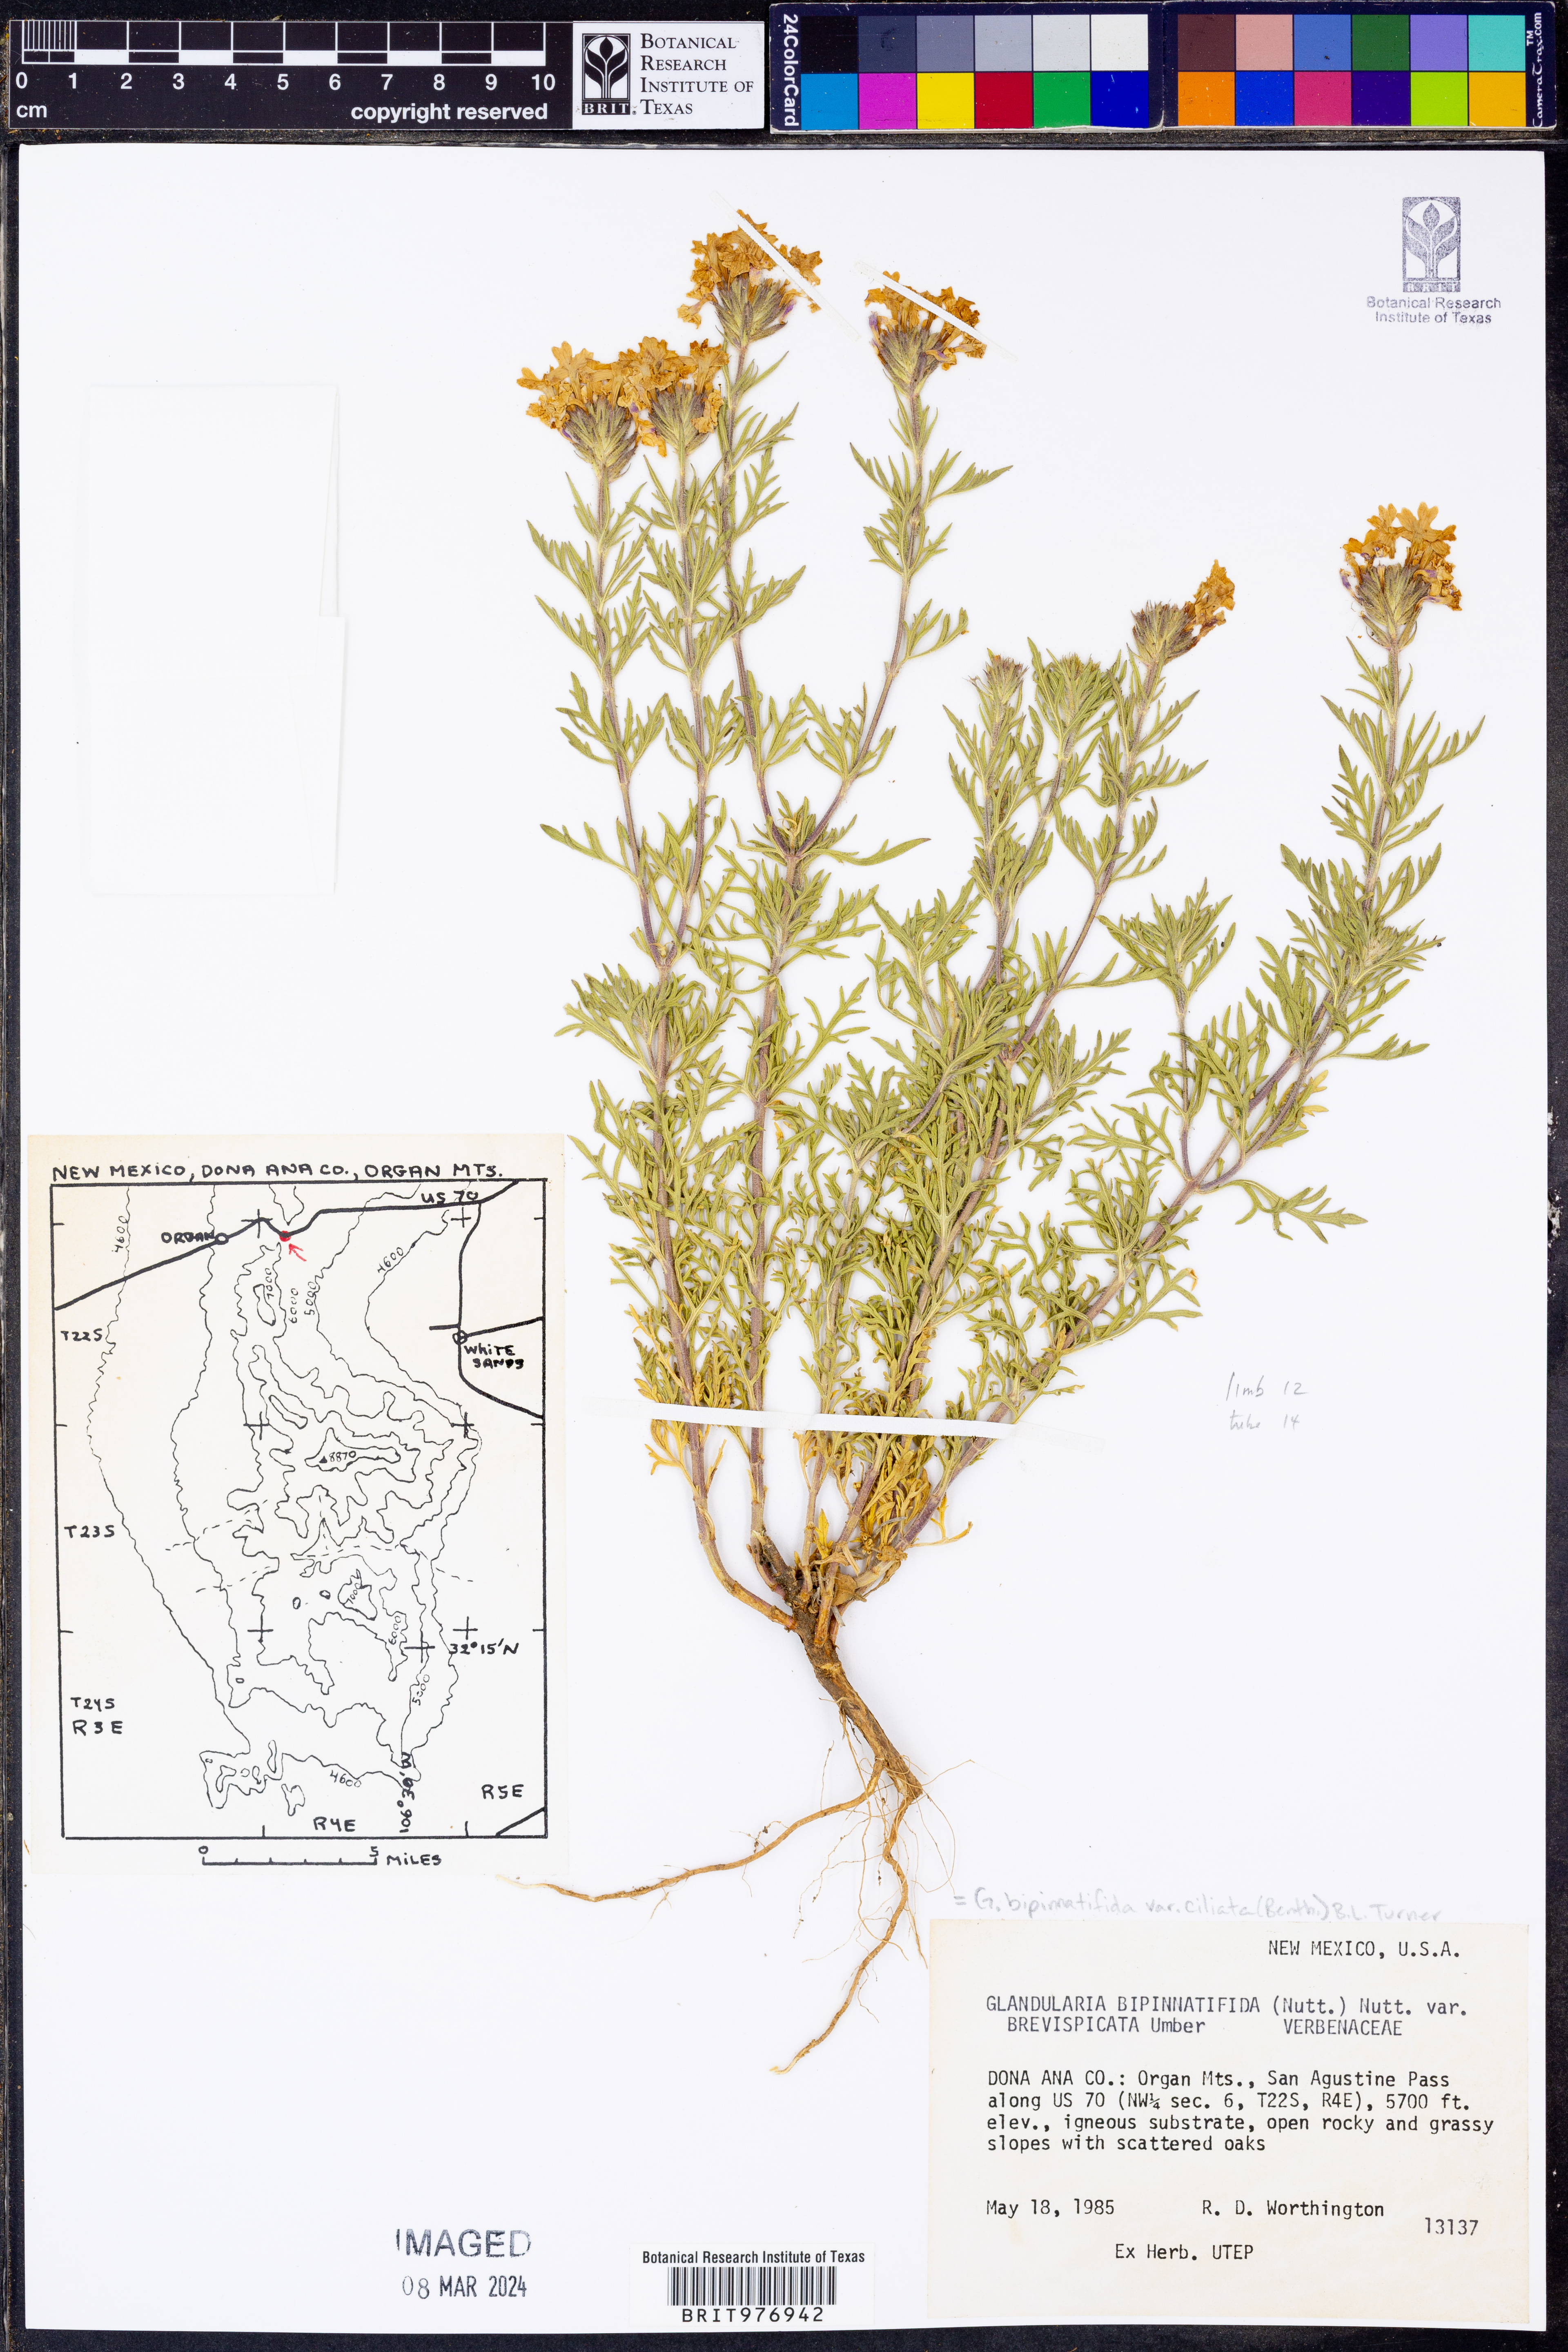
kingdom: Plantae
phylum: Tracheophyta
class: Magnoliopsida
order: Lamiales
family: Verbenaceae
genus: Verbena
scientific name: Verbena bipinnatifida
